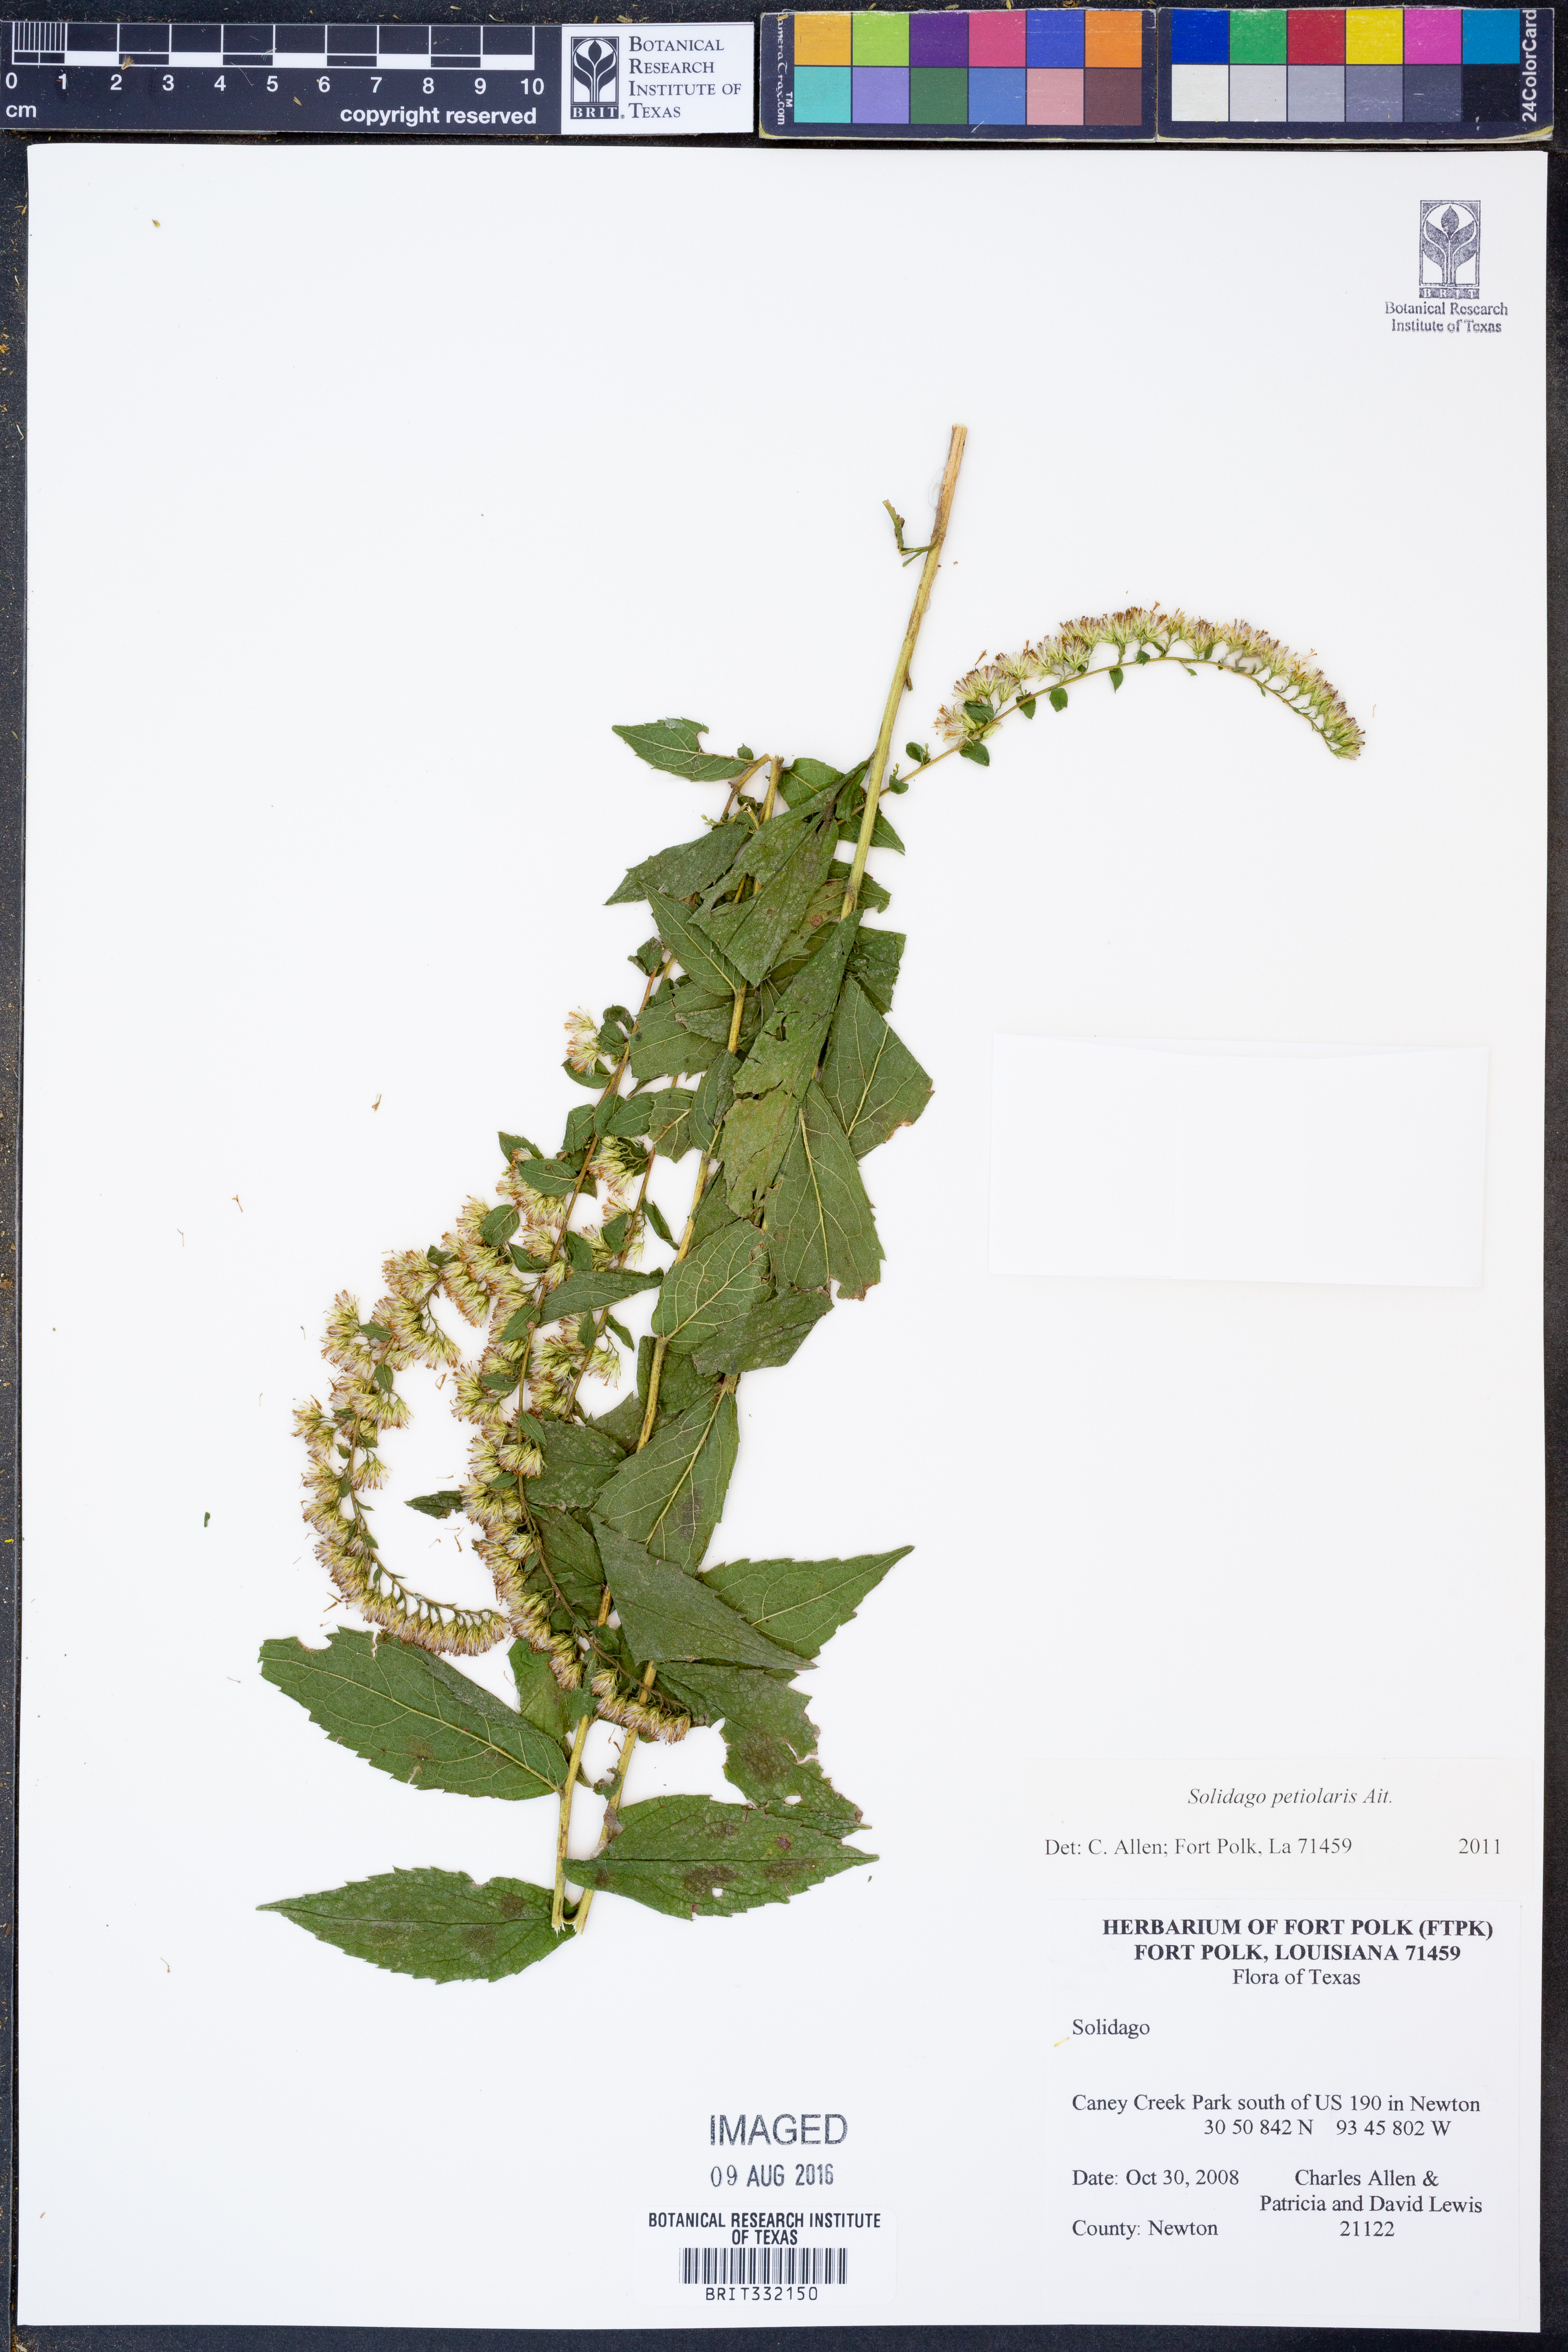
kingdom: Plantae
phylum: Tracheophyta
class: Magnoliopsida
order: Asterales
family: Asteraceae
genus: Solidago
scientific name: Solidago petiolaris
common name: Downy ragged goldenrod
